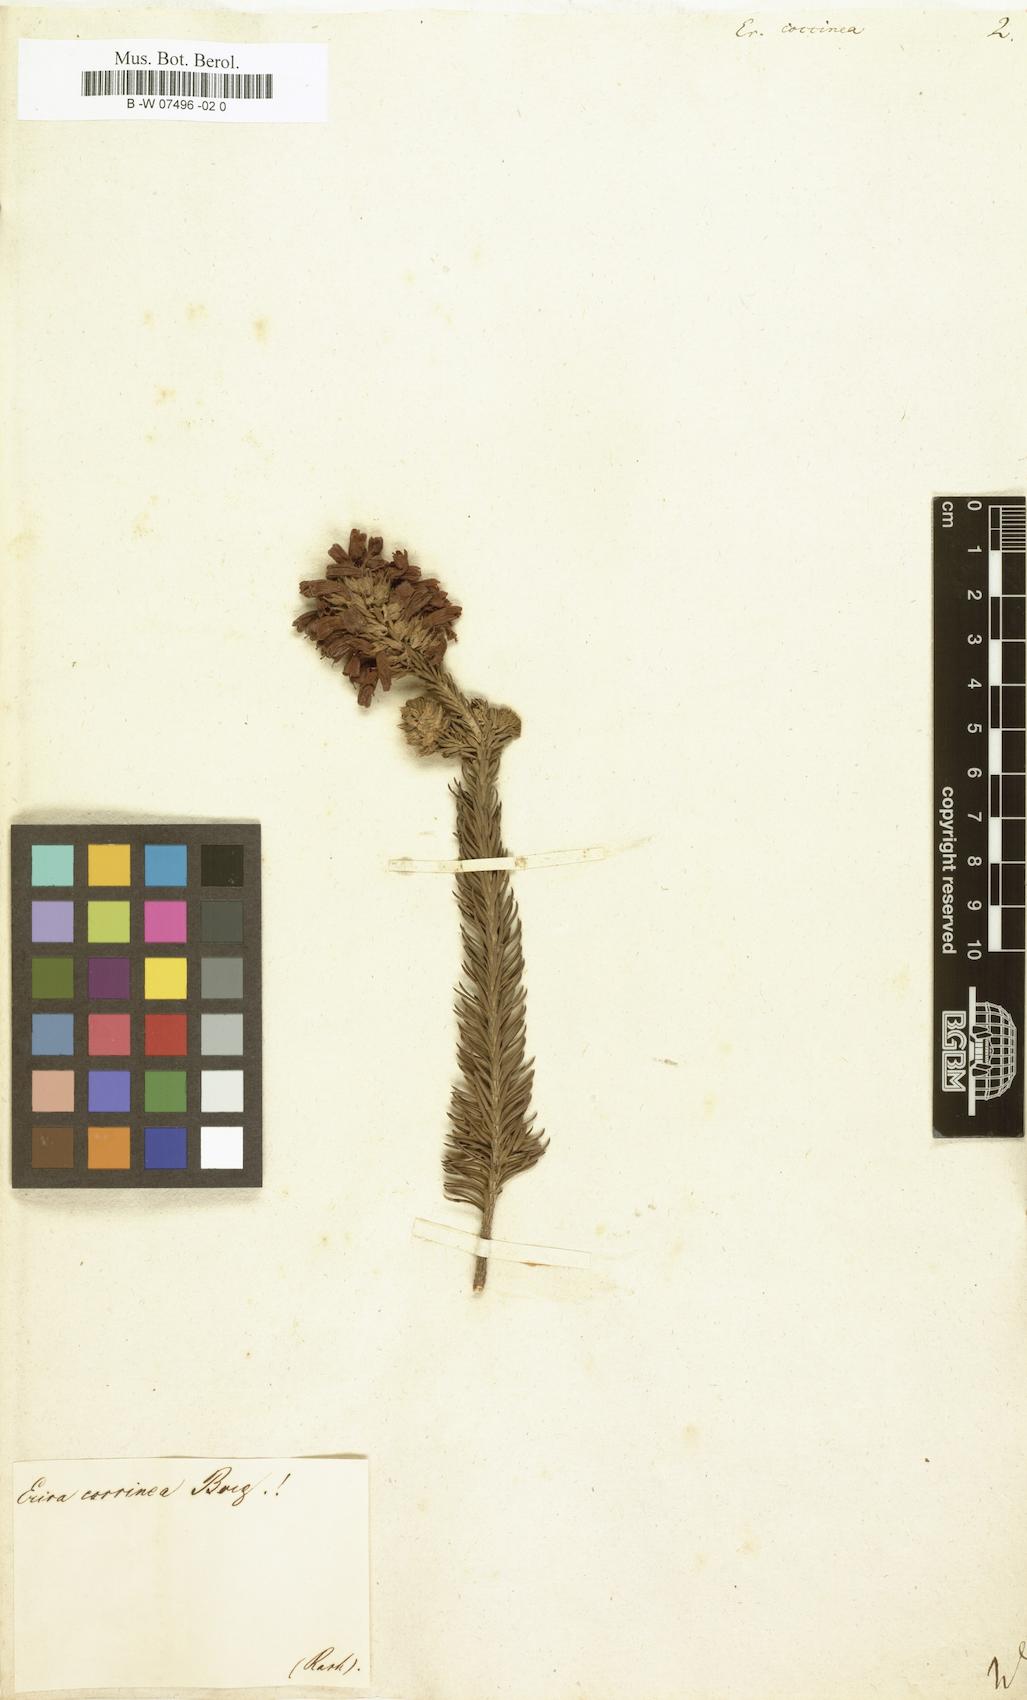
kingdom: Plantae
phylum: Tracheophyta
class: Magnoliopsida
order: Ericales
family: Ericaceae
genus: Erica
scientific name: Erica abietina
